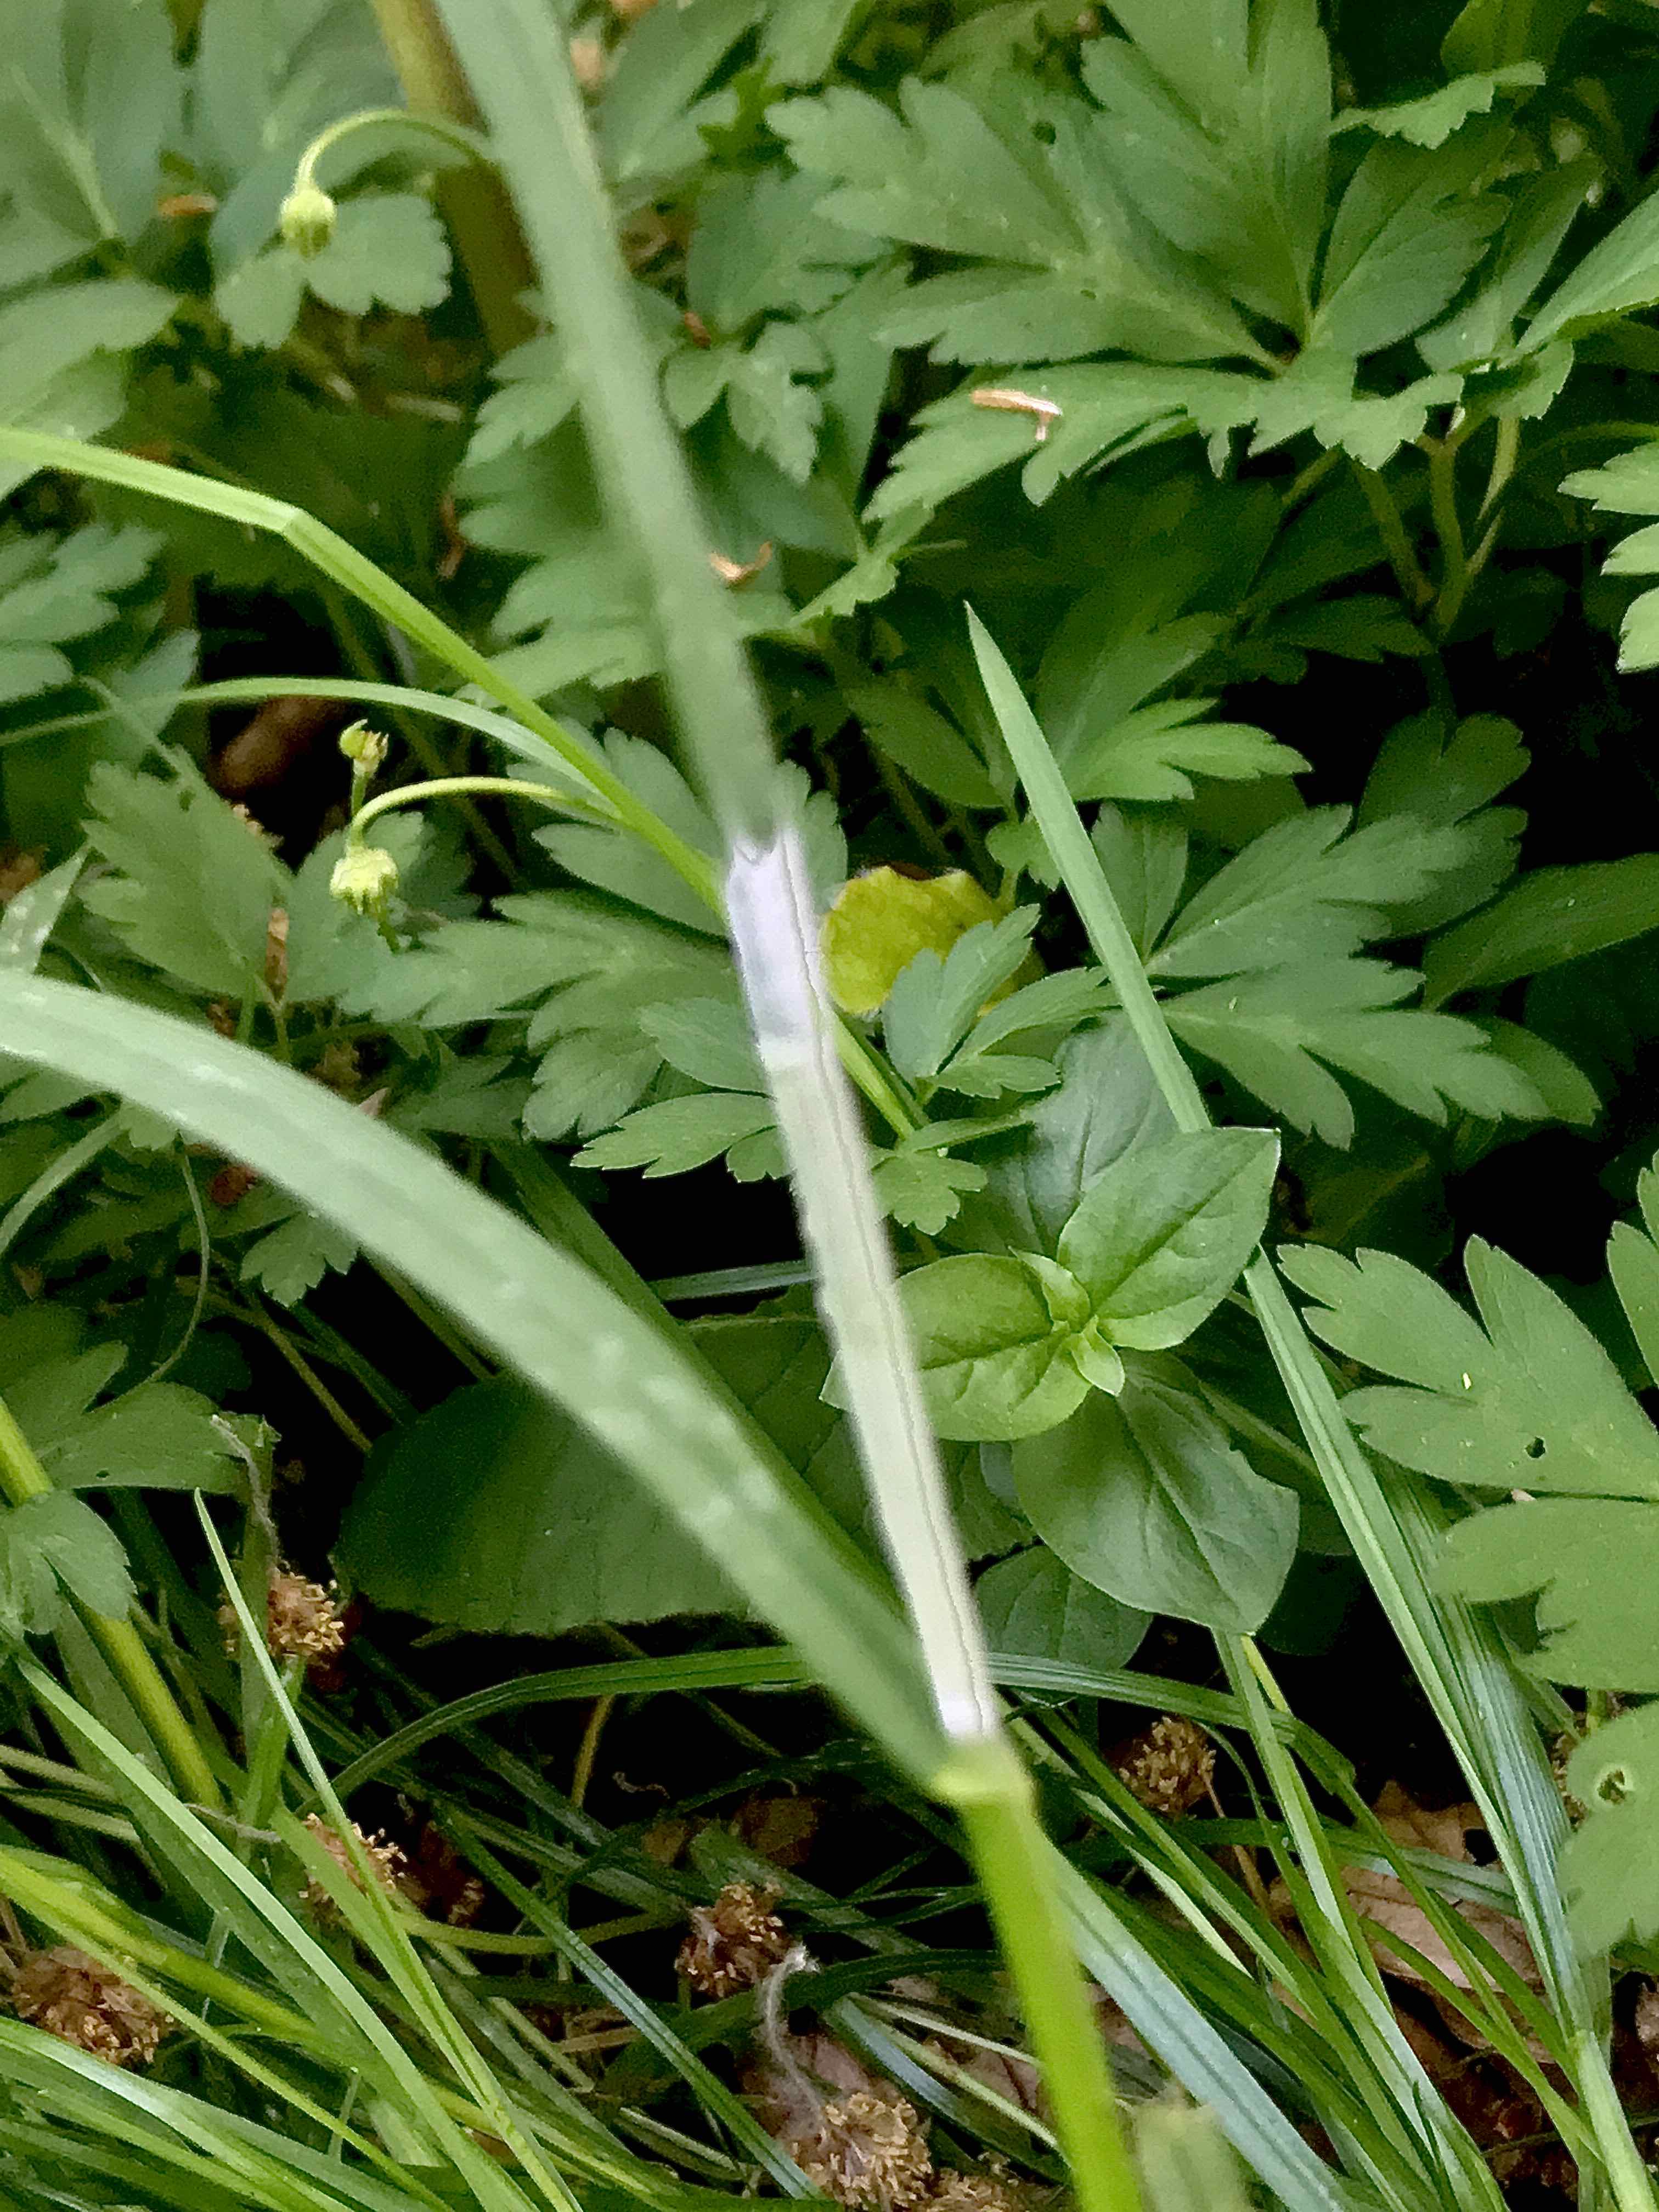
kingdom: Fungi
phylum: Ascomycota
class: Sordariomycetes
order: Hypocreales
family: Clavicipitaceae
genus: Epichloe
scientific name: Epichloe
